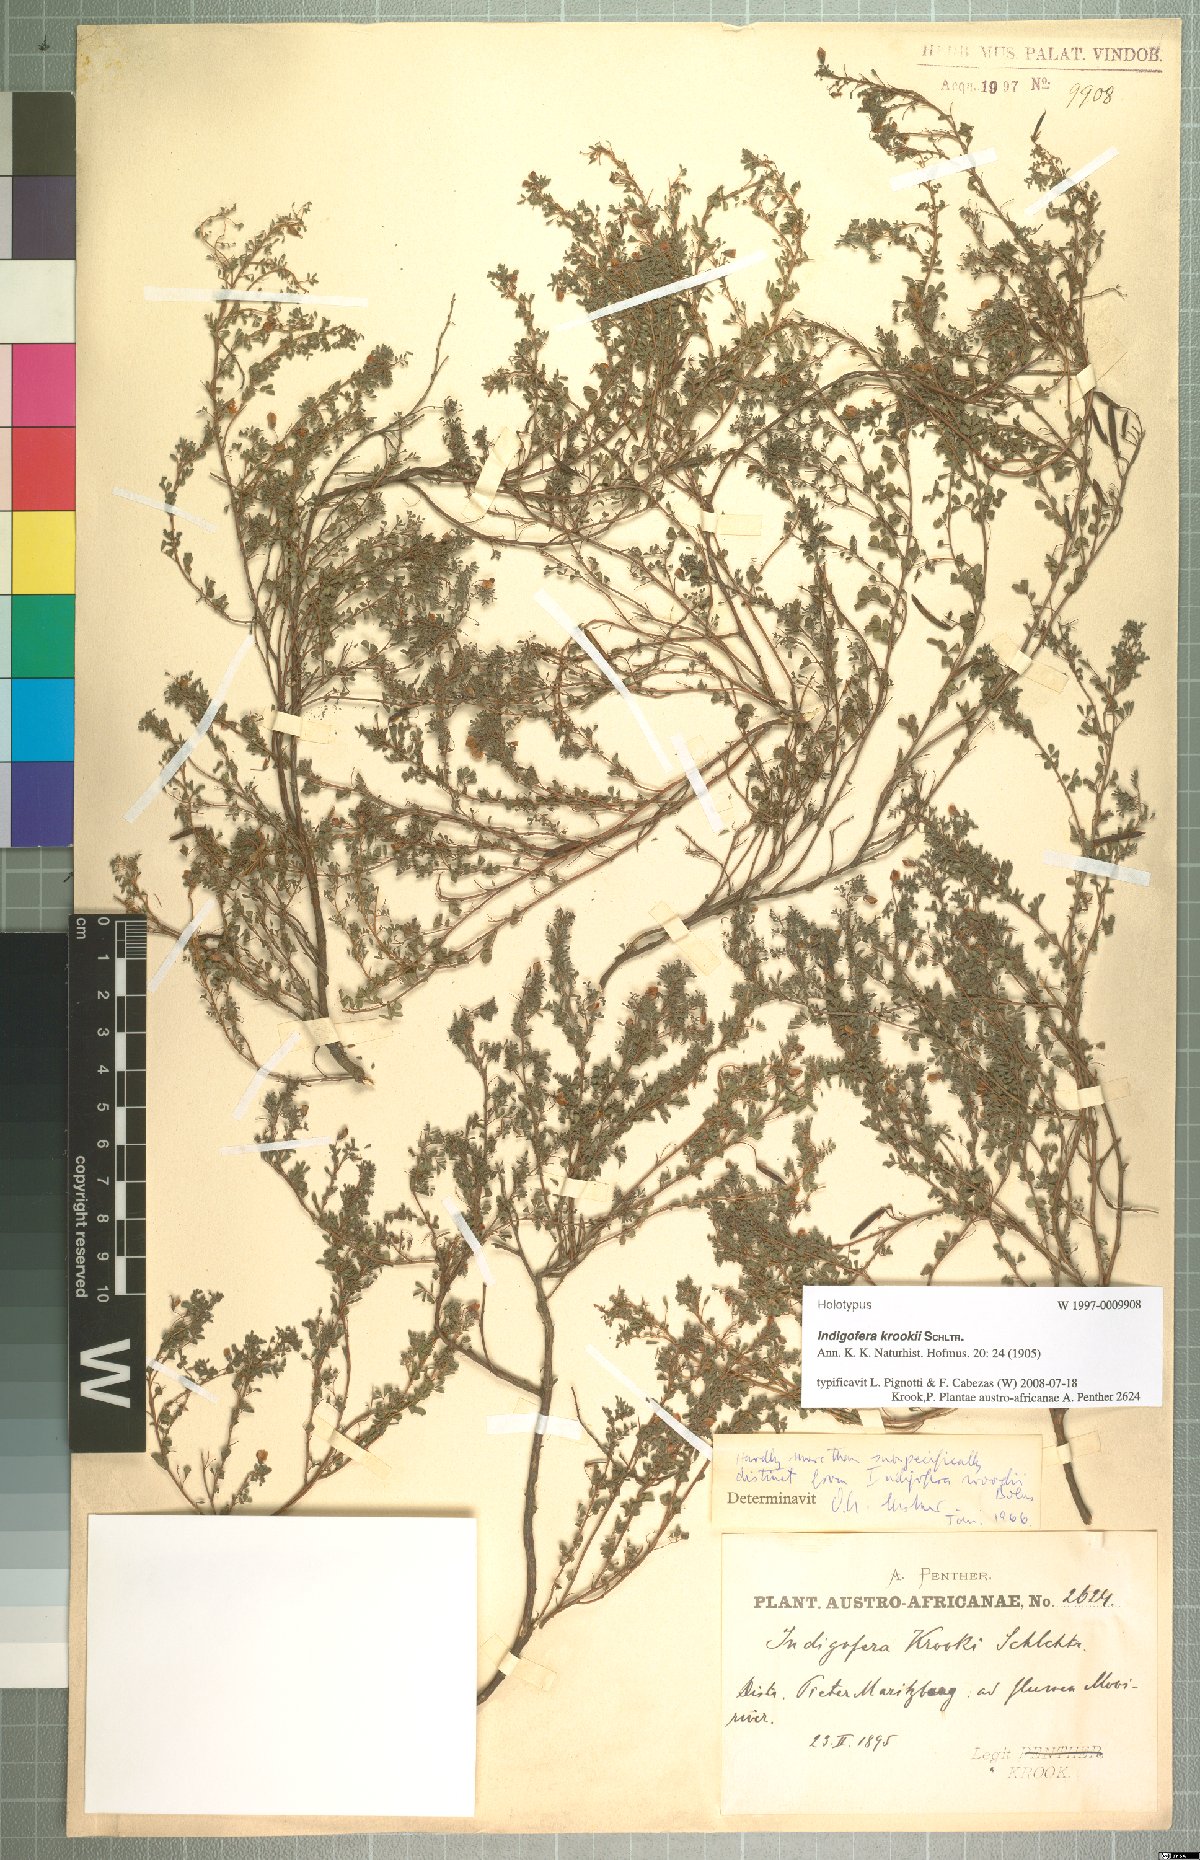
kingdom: Plantae
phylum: Tracheophyta
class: Magnoliopsida
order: Fabales
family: Fabaceae
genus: Indigofera
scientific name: Indigofera krookii
